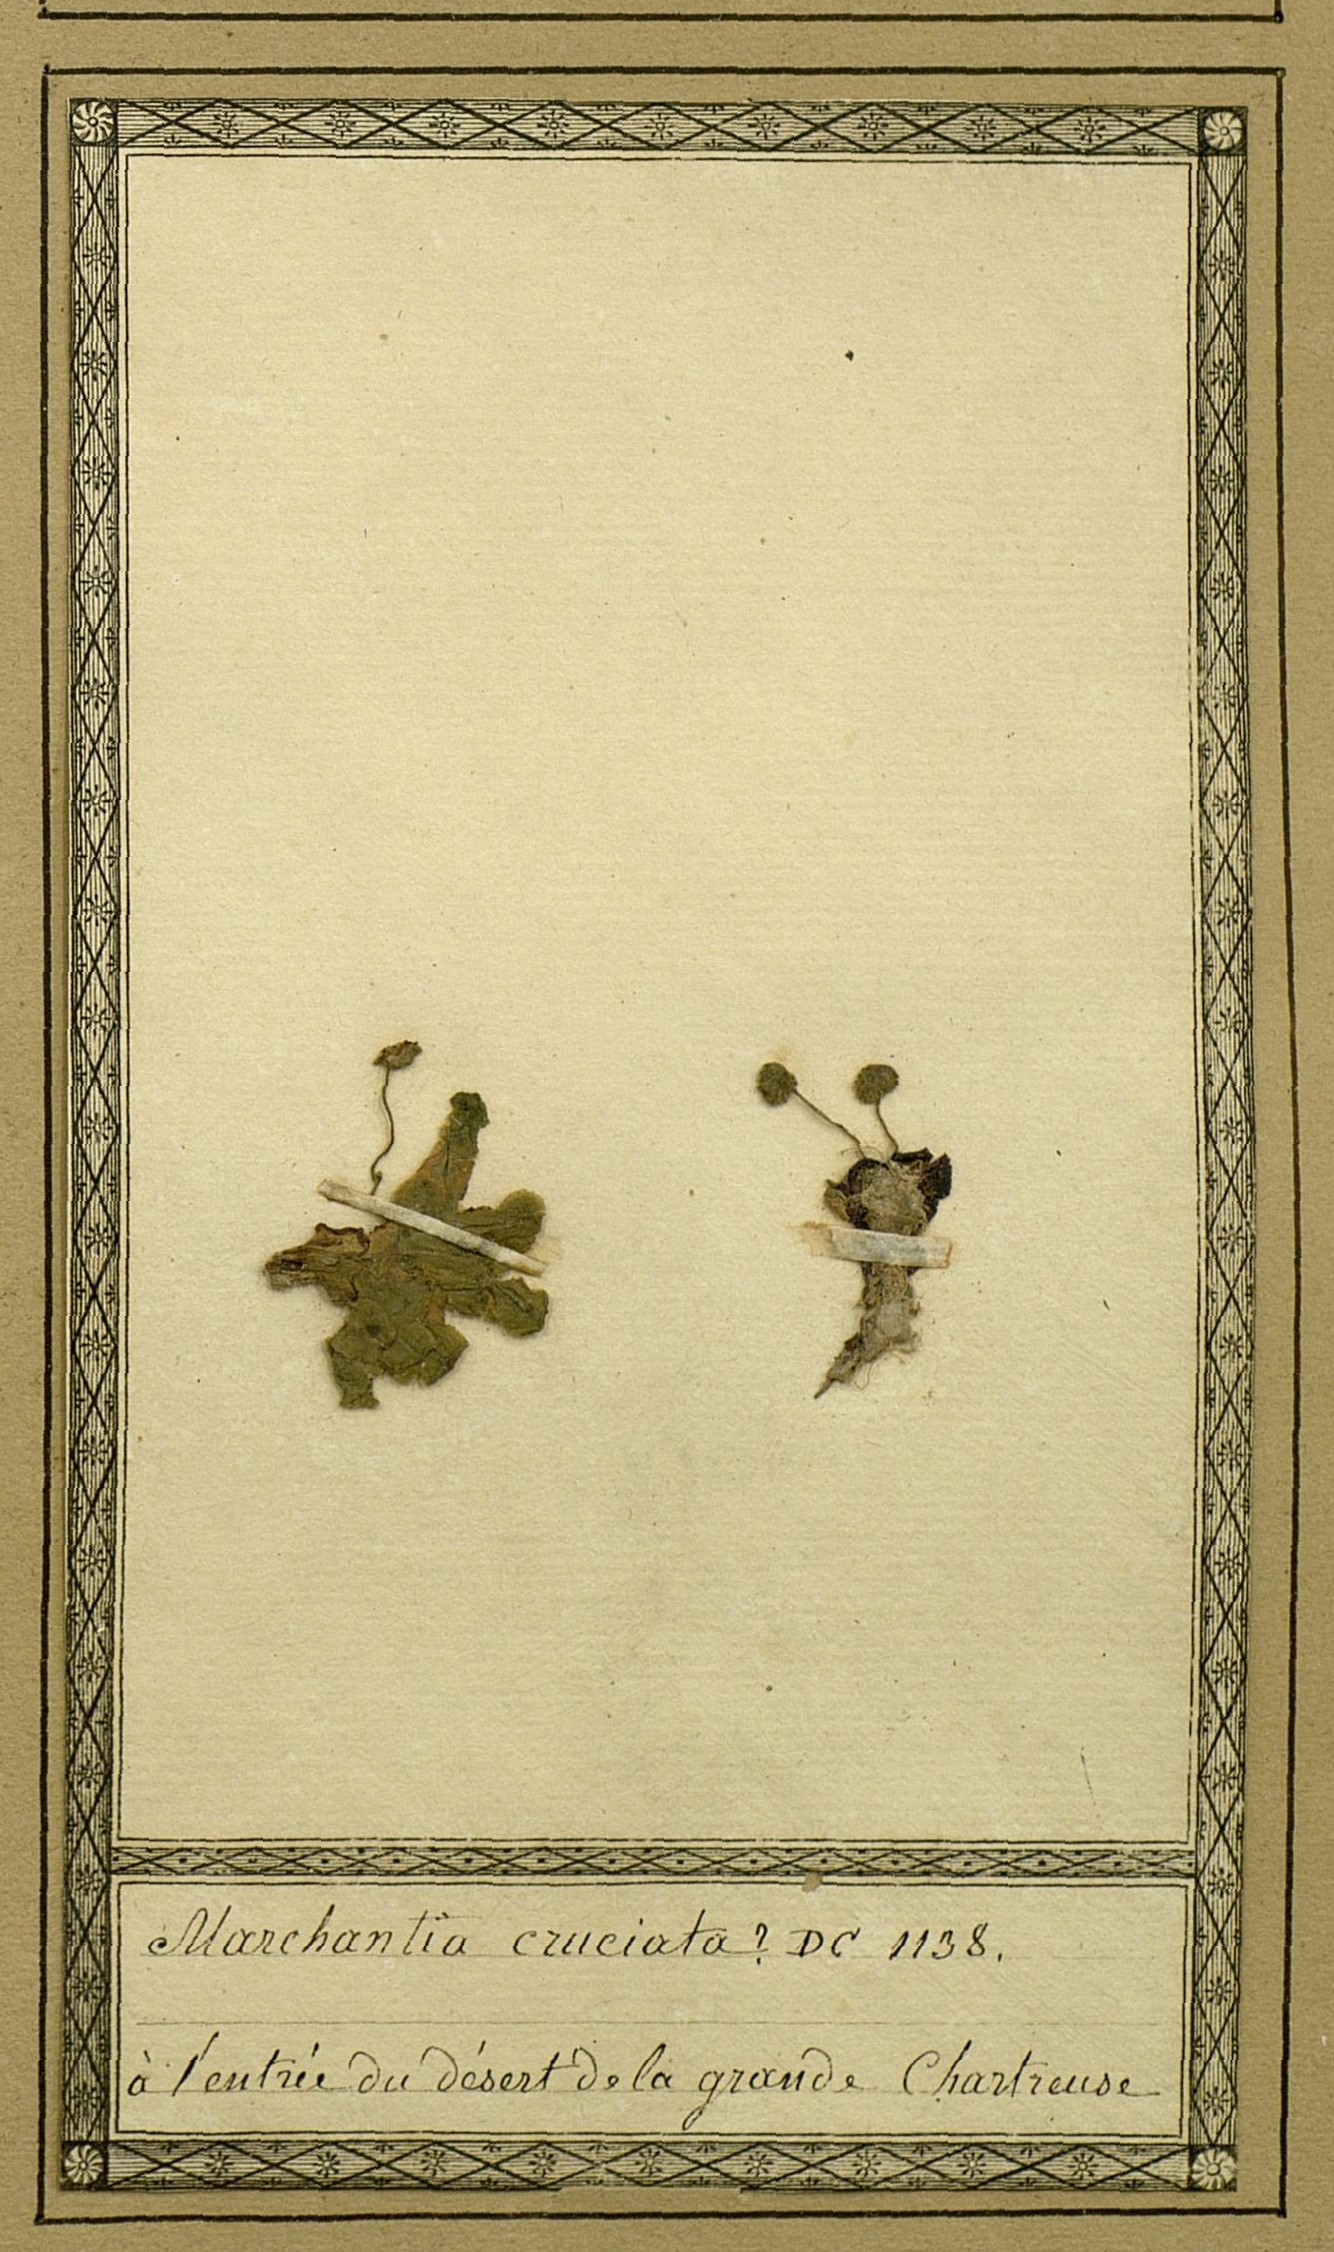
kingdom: Plantae
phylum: Marchantiophyta
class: Marchantiopsida
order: Lunulariales
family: Lunulariaceae
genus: Lunularia
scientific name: Lunularia cruciata
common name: Crescent-cup liverwort
